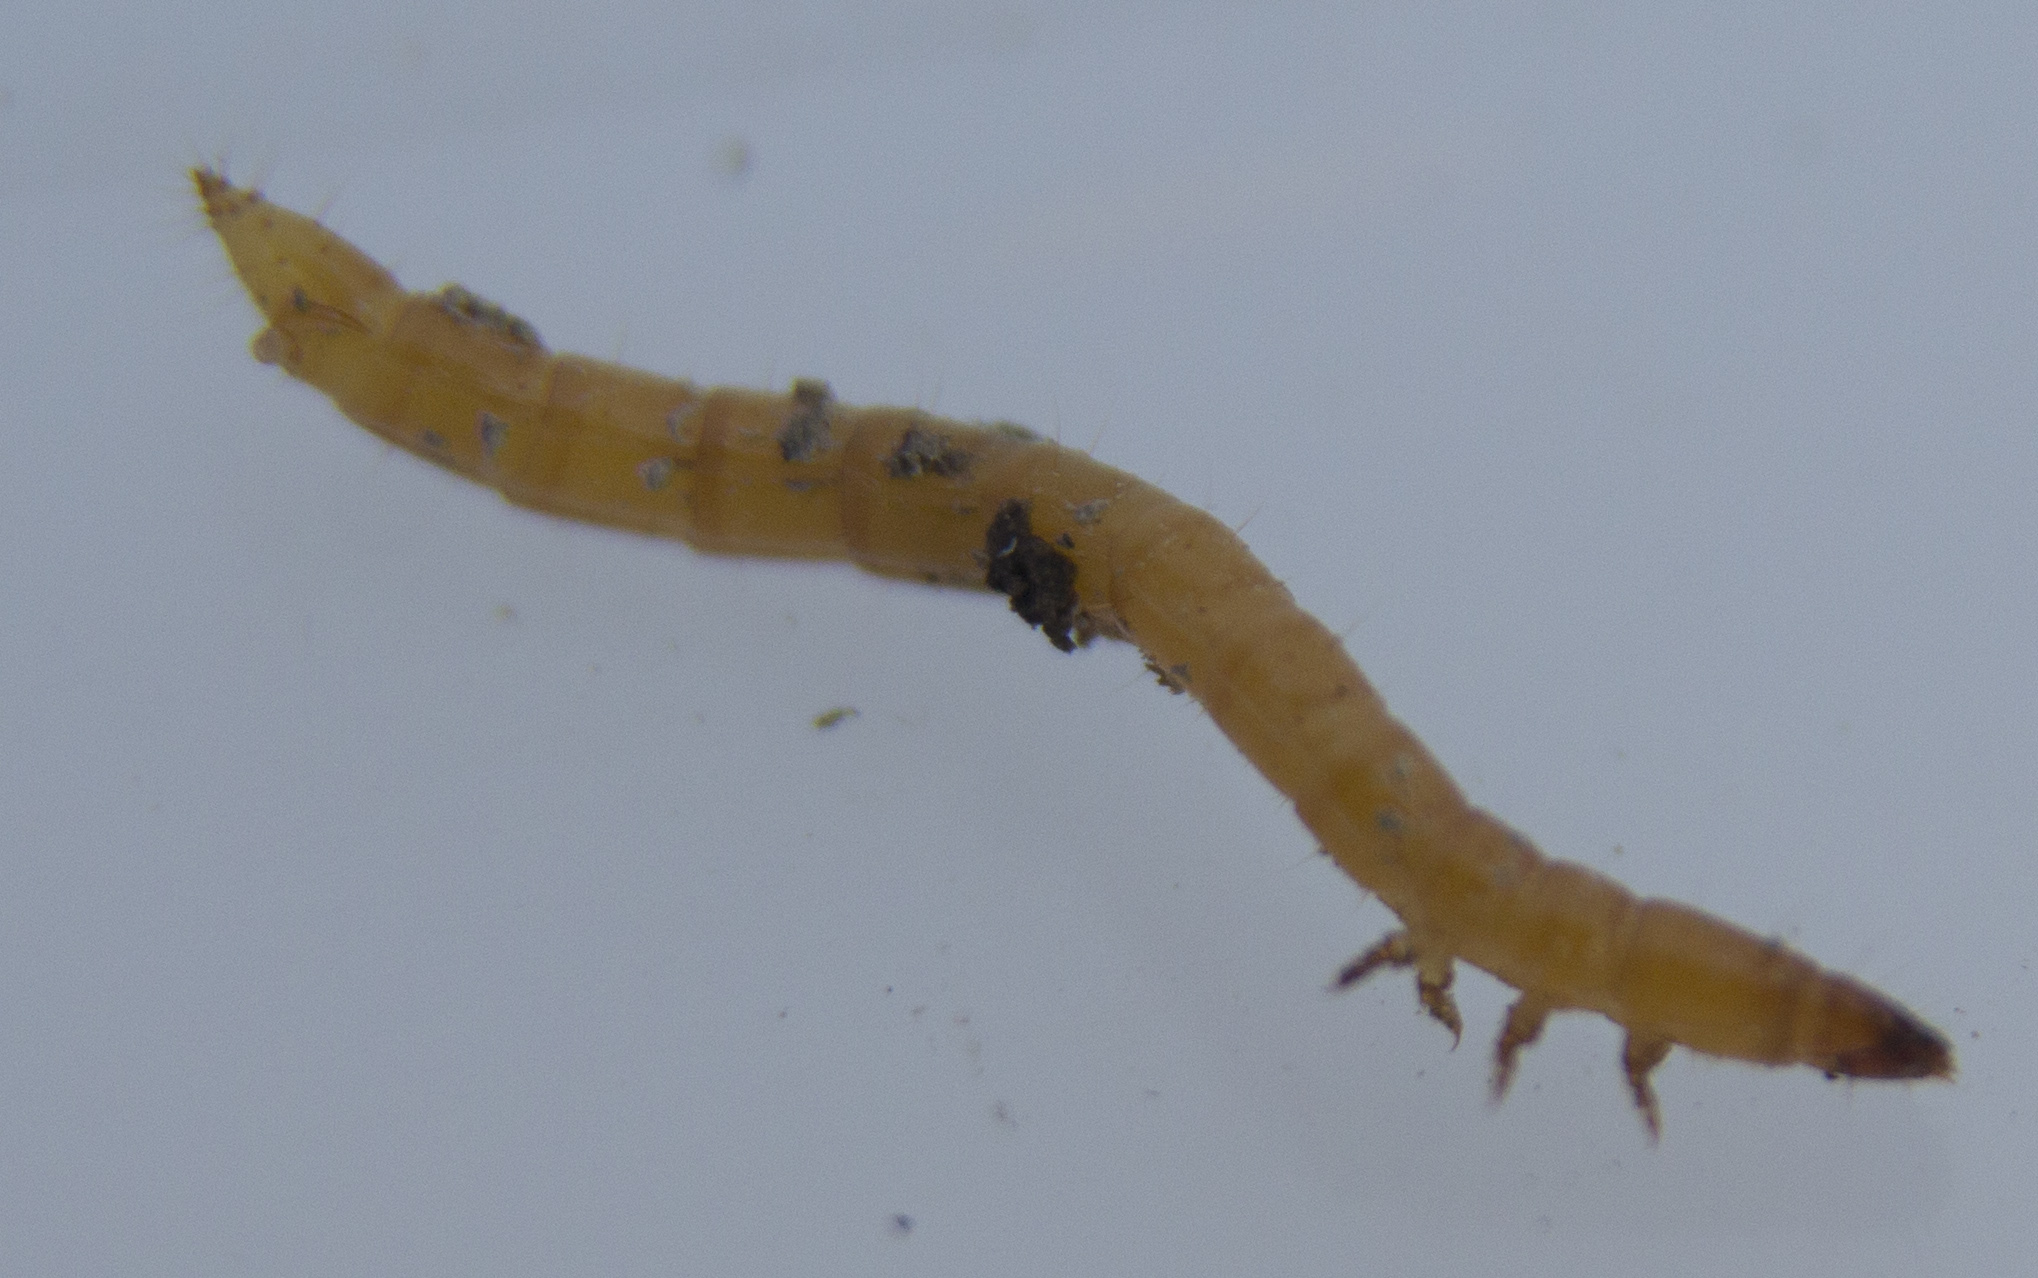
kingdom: Animalia
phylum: Arthropoda
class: Insecta
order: Coleoptera
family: Elateridae
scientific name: Elateridae
